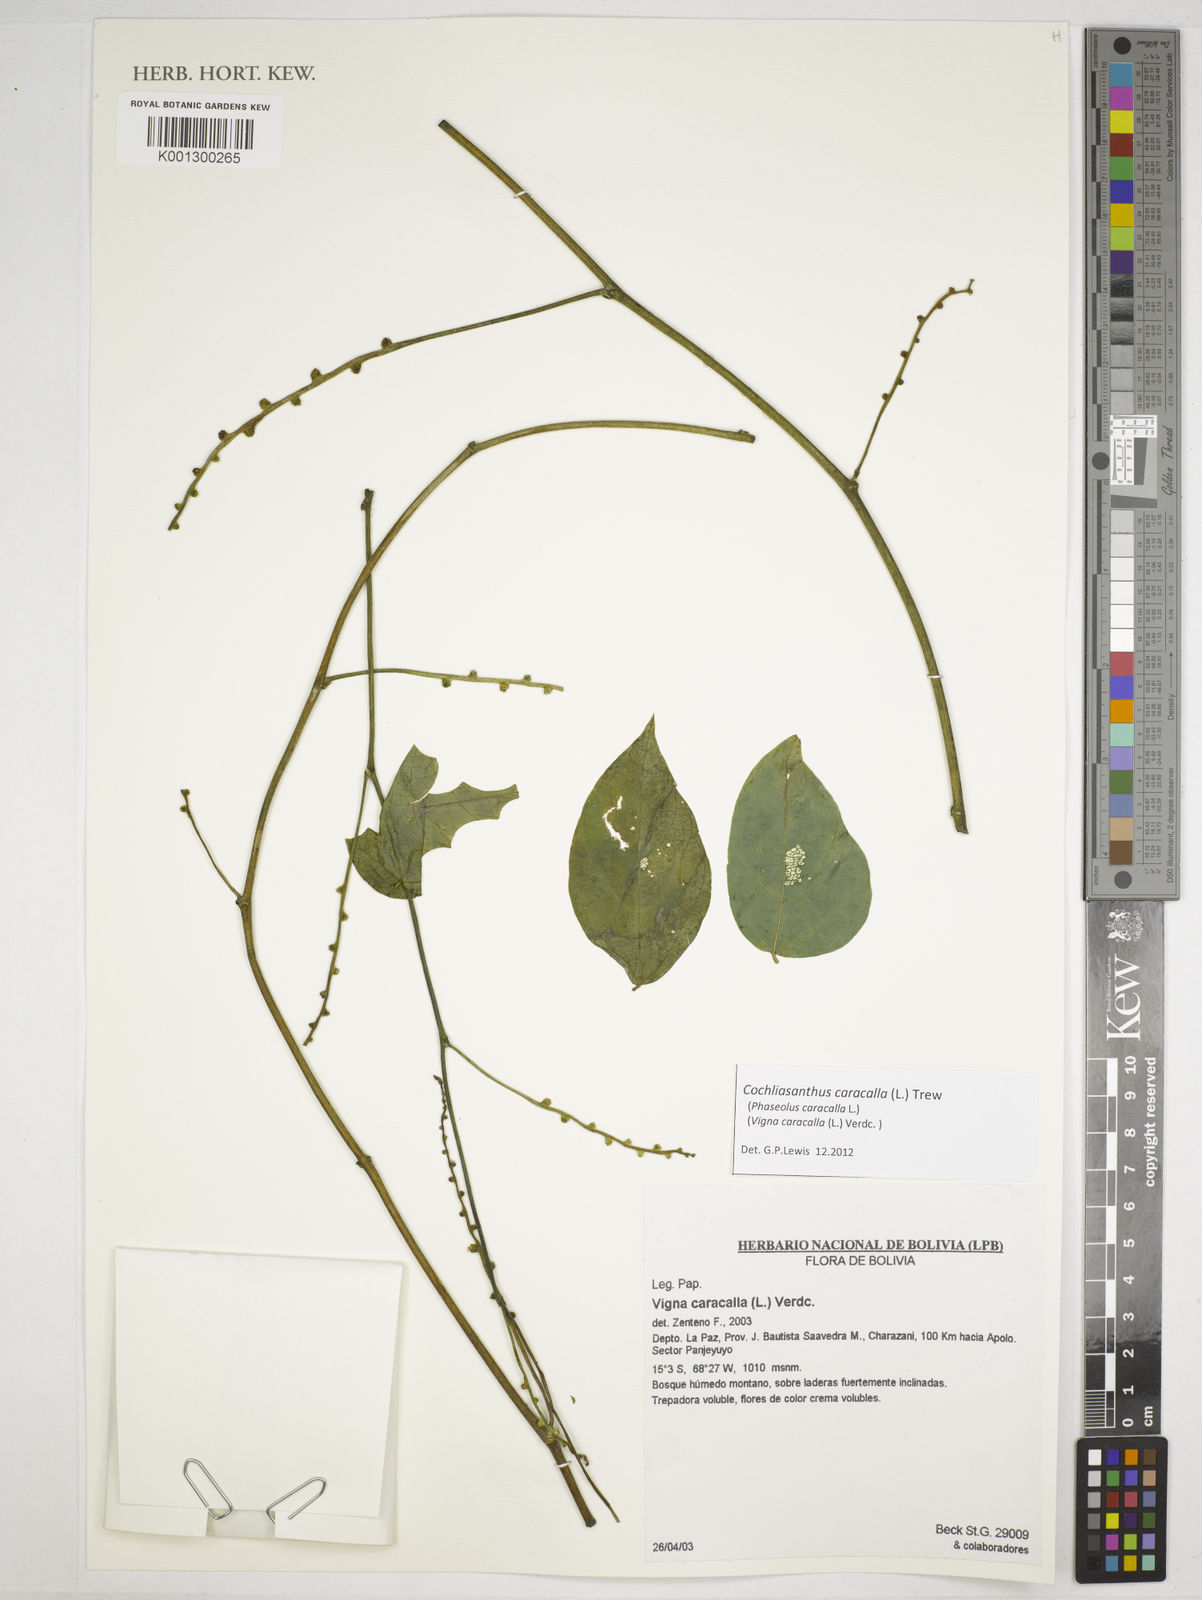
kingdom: Plantae
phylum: Tracheophyta
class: Magnoliopsida
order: Fabales
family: Fabaceae
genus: Cochliasanthus
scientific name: Cochliasanthus caracalla
